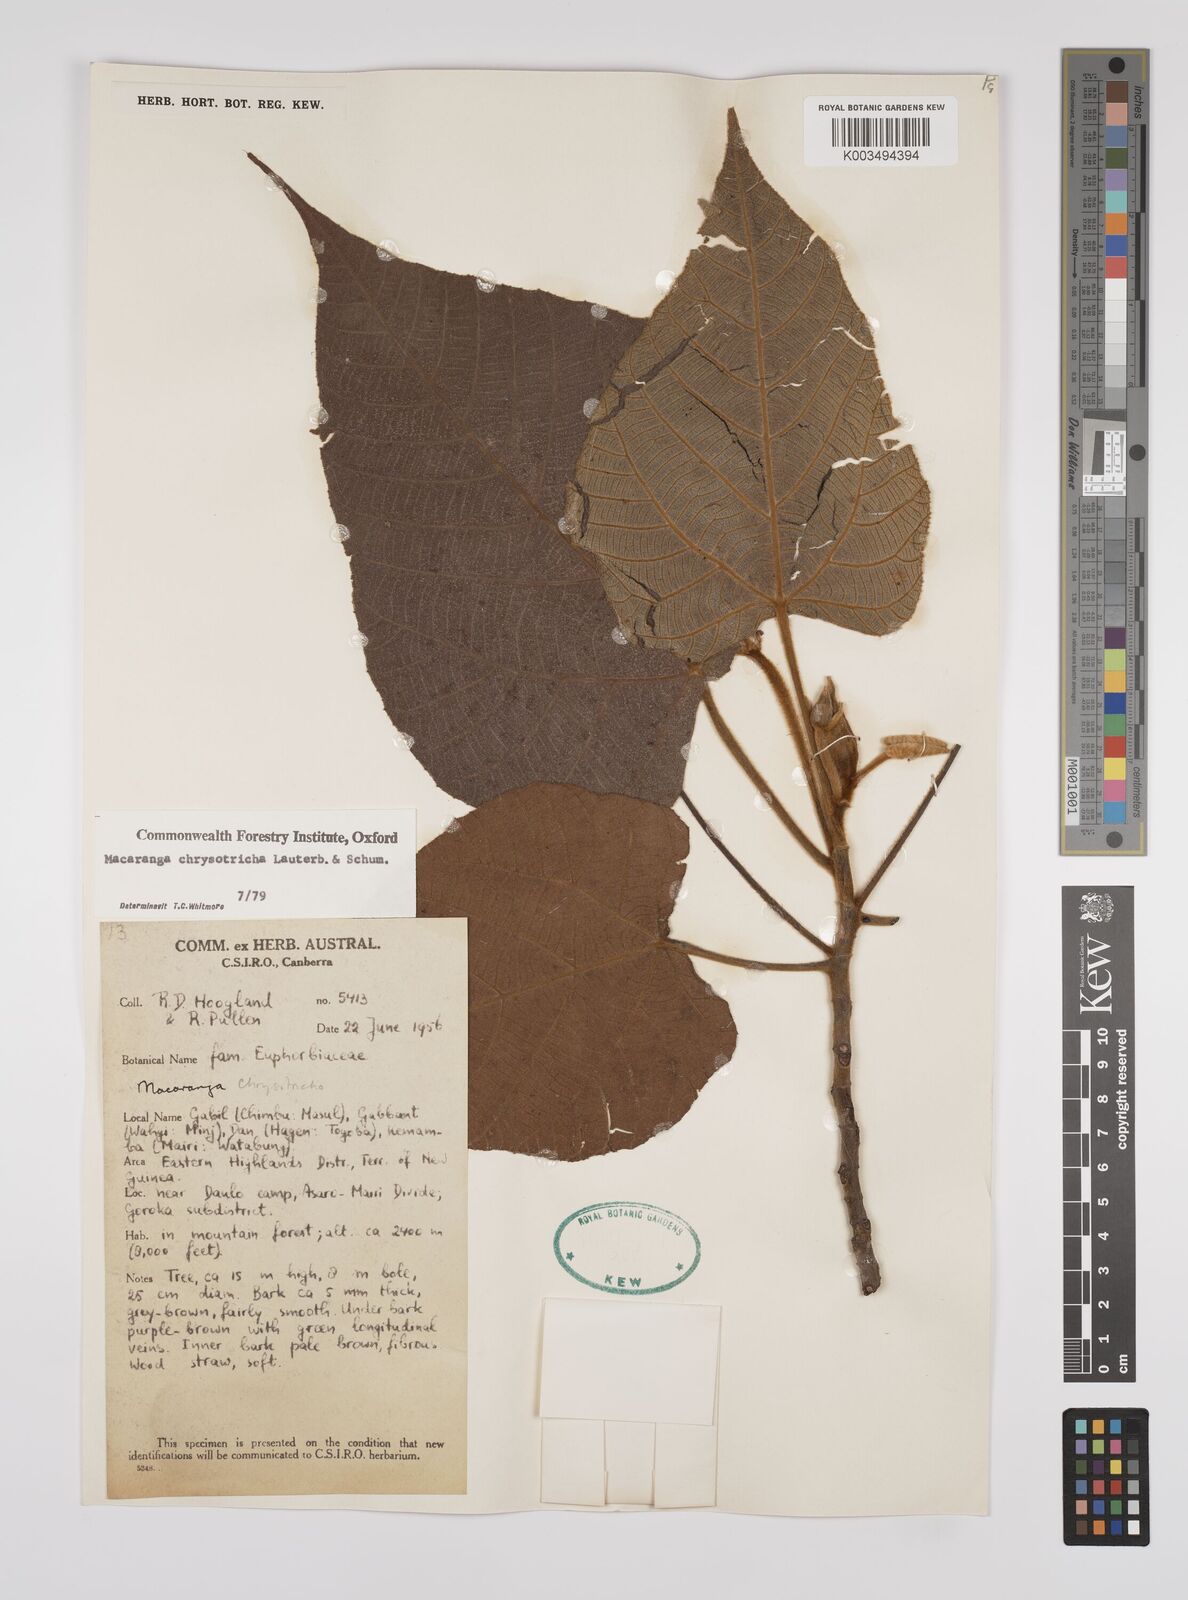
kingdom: Plantae
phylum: Tracheophyta
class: Magnoliopsida
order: Malpighiales
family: Euphorbiaceae
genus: Macaranga
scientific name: Macaranga chrysotricha
